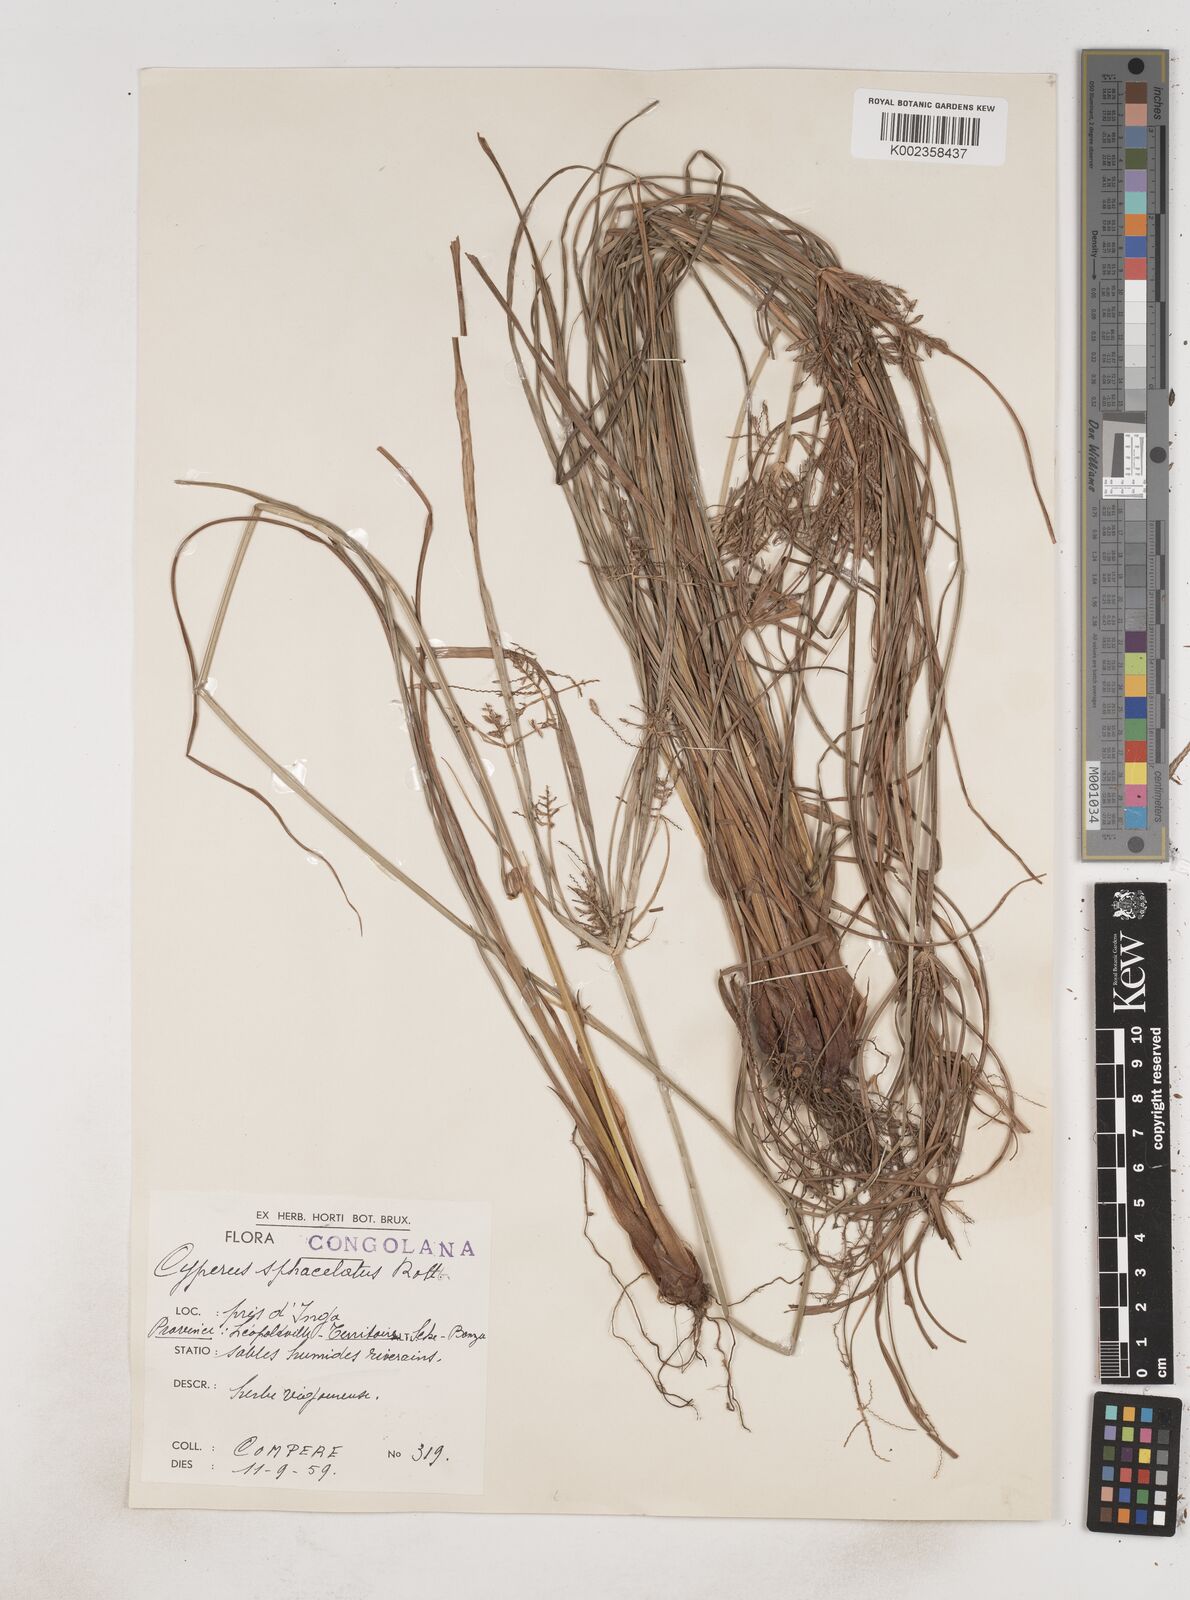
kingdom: Plantae
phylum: Tracheophyta
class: Liliopsida
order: Poales
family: Cyperaceae
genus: Cyperus
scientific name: Cyperus sphacelatus
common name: Roadside flatsedge
